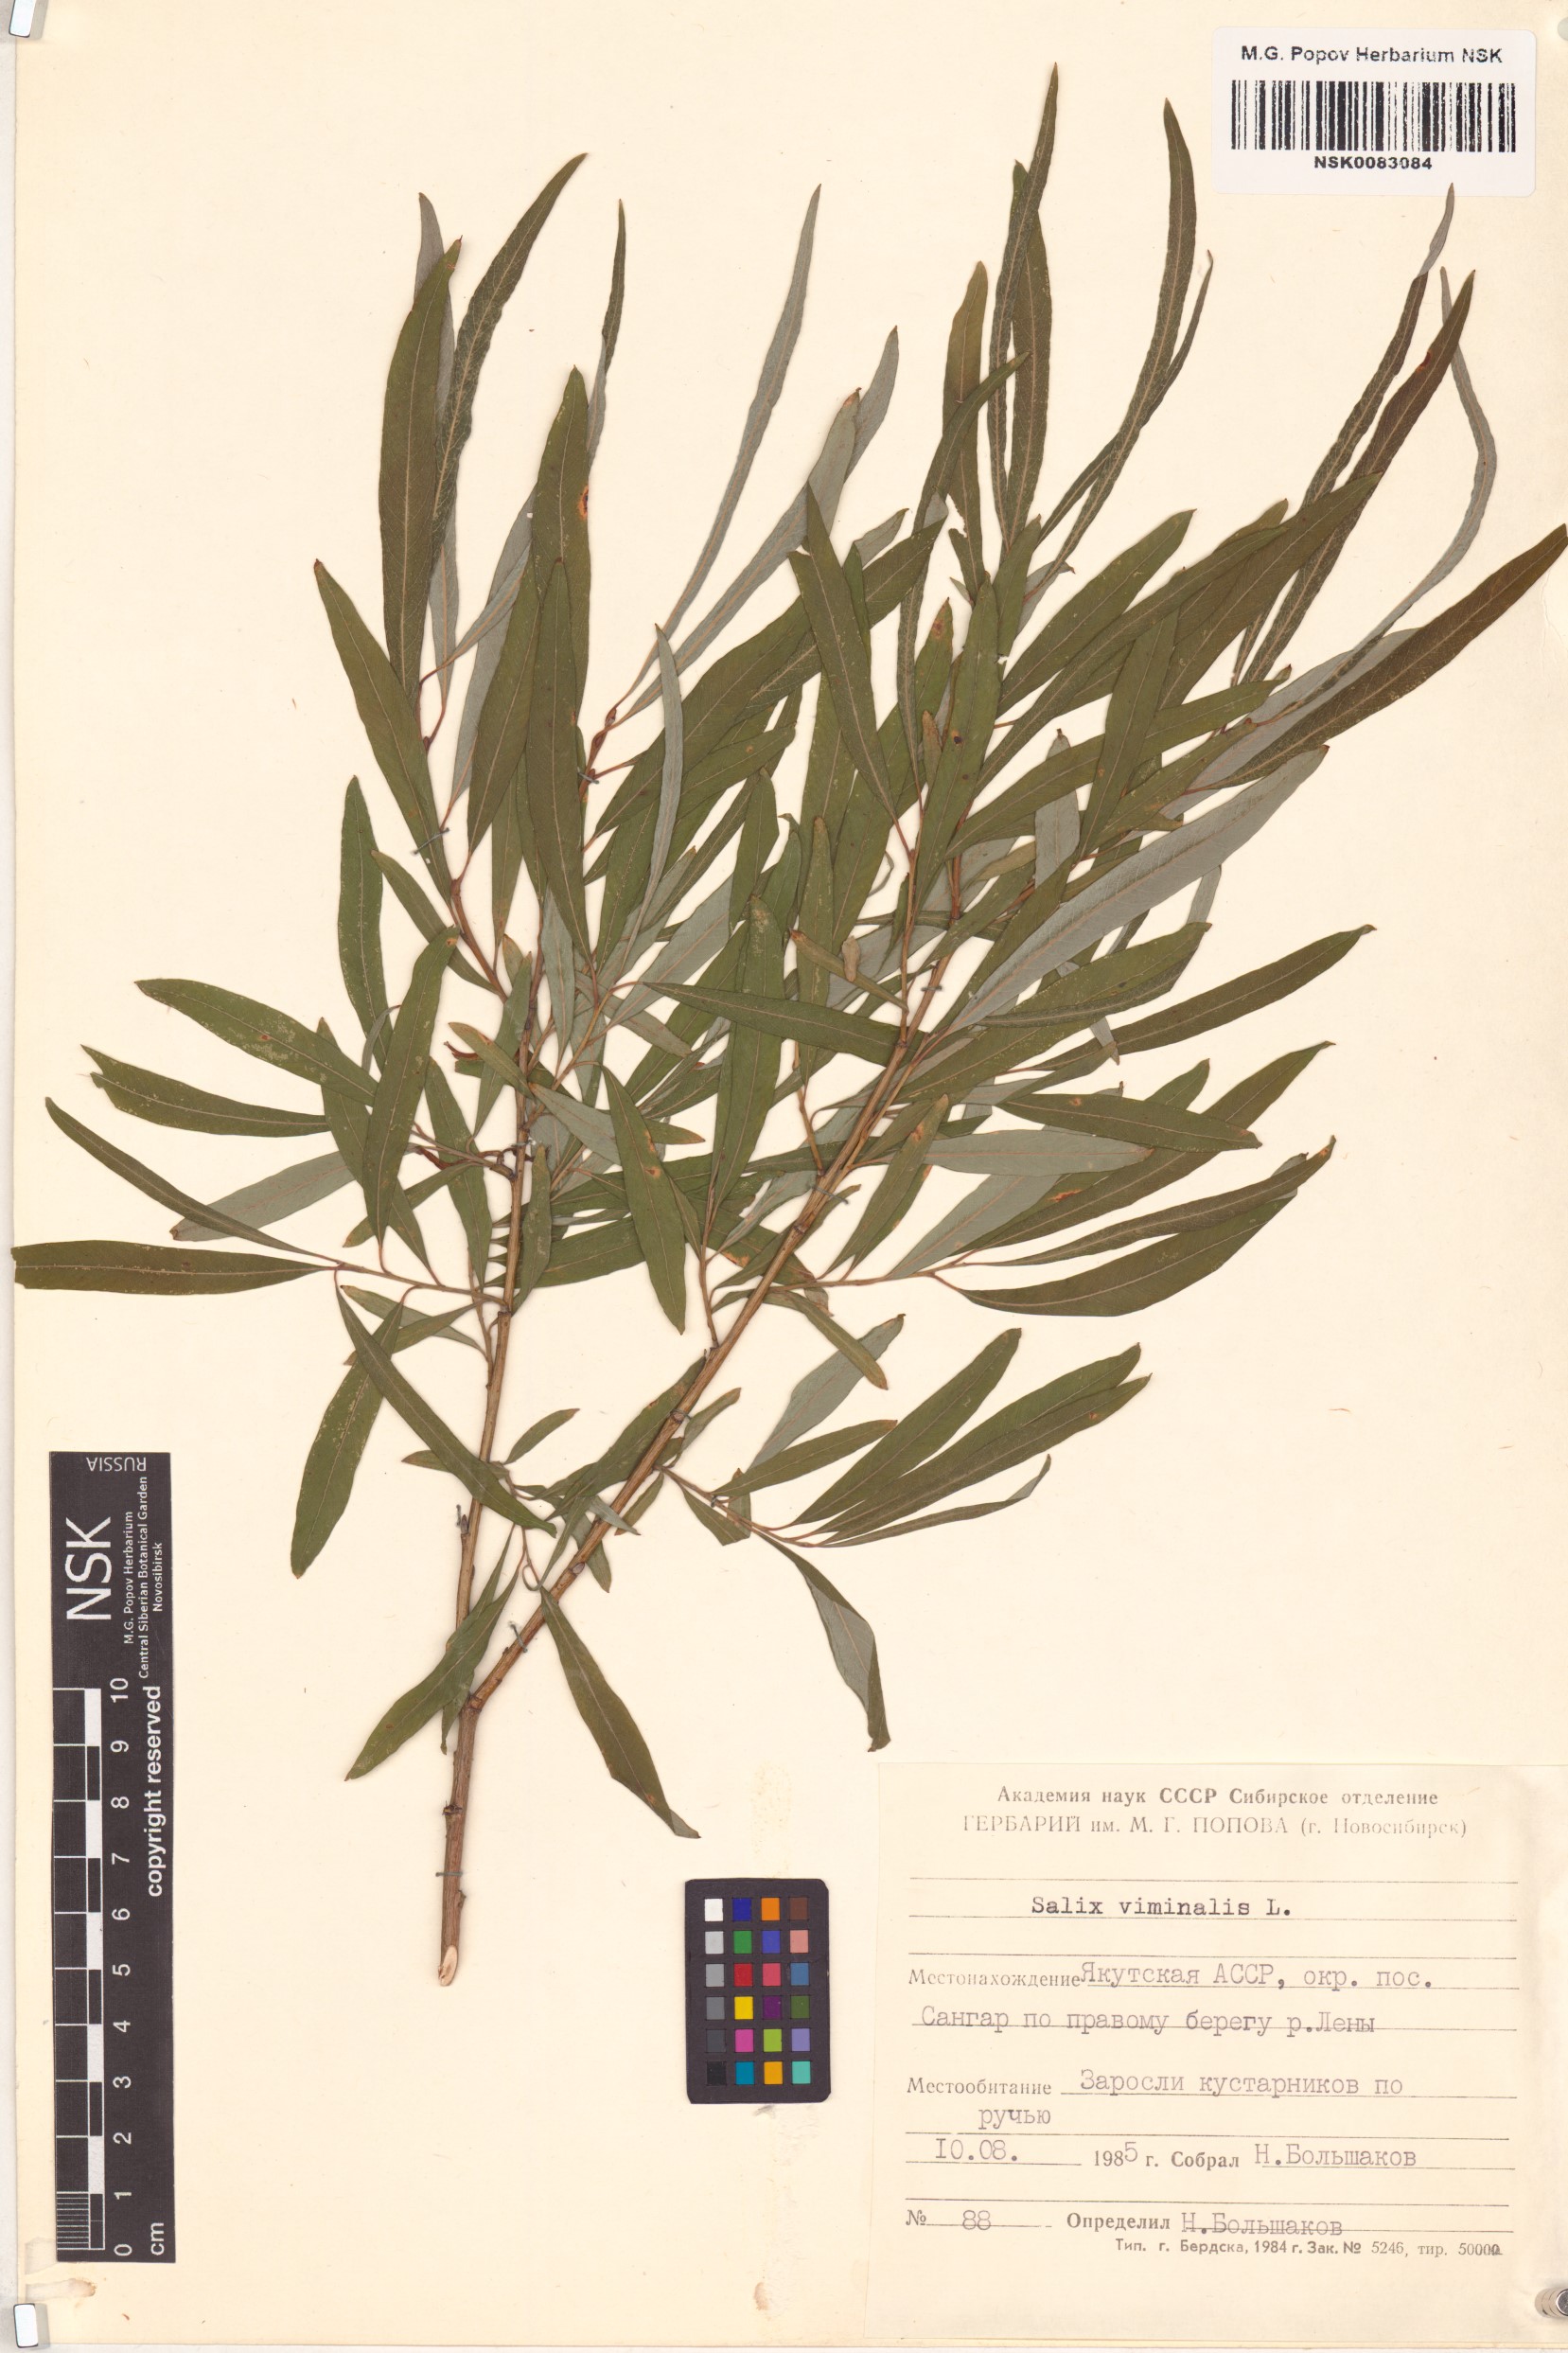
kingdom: Plantae
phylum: Tracheophyta
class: Magnoliopsida
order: Malpighiales
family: Salicaceae
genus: Salix
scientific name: Salix viminalis
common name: Osier
